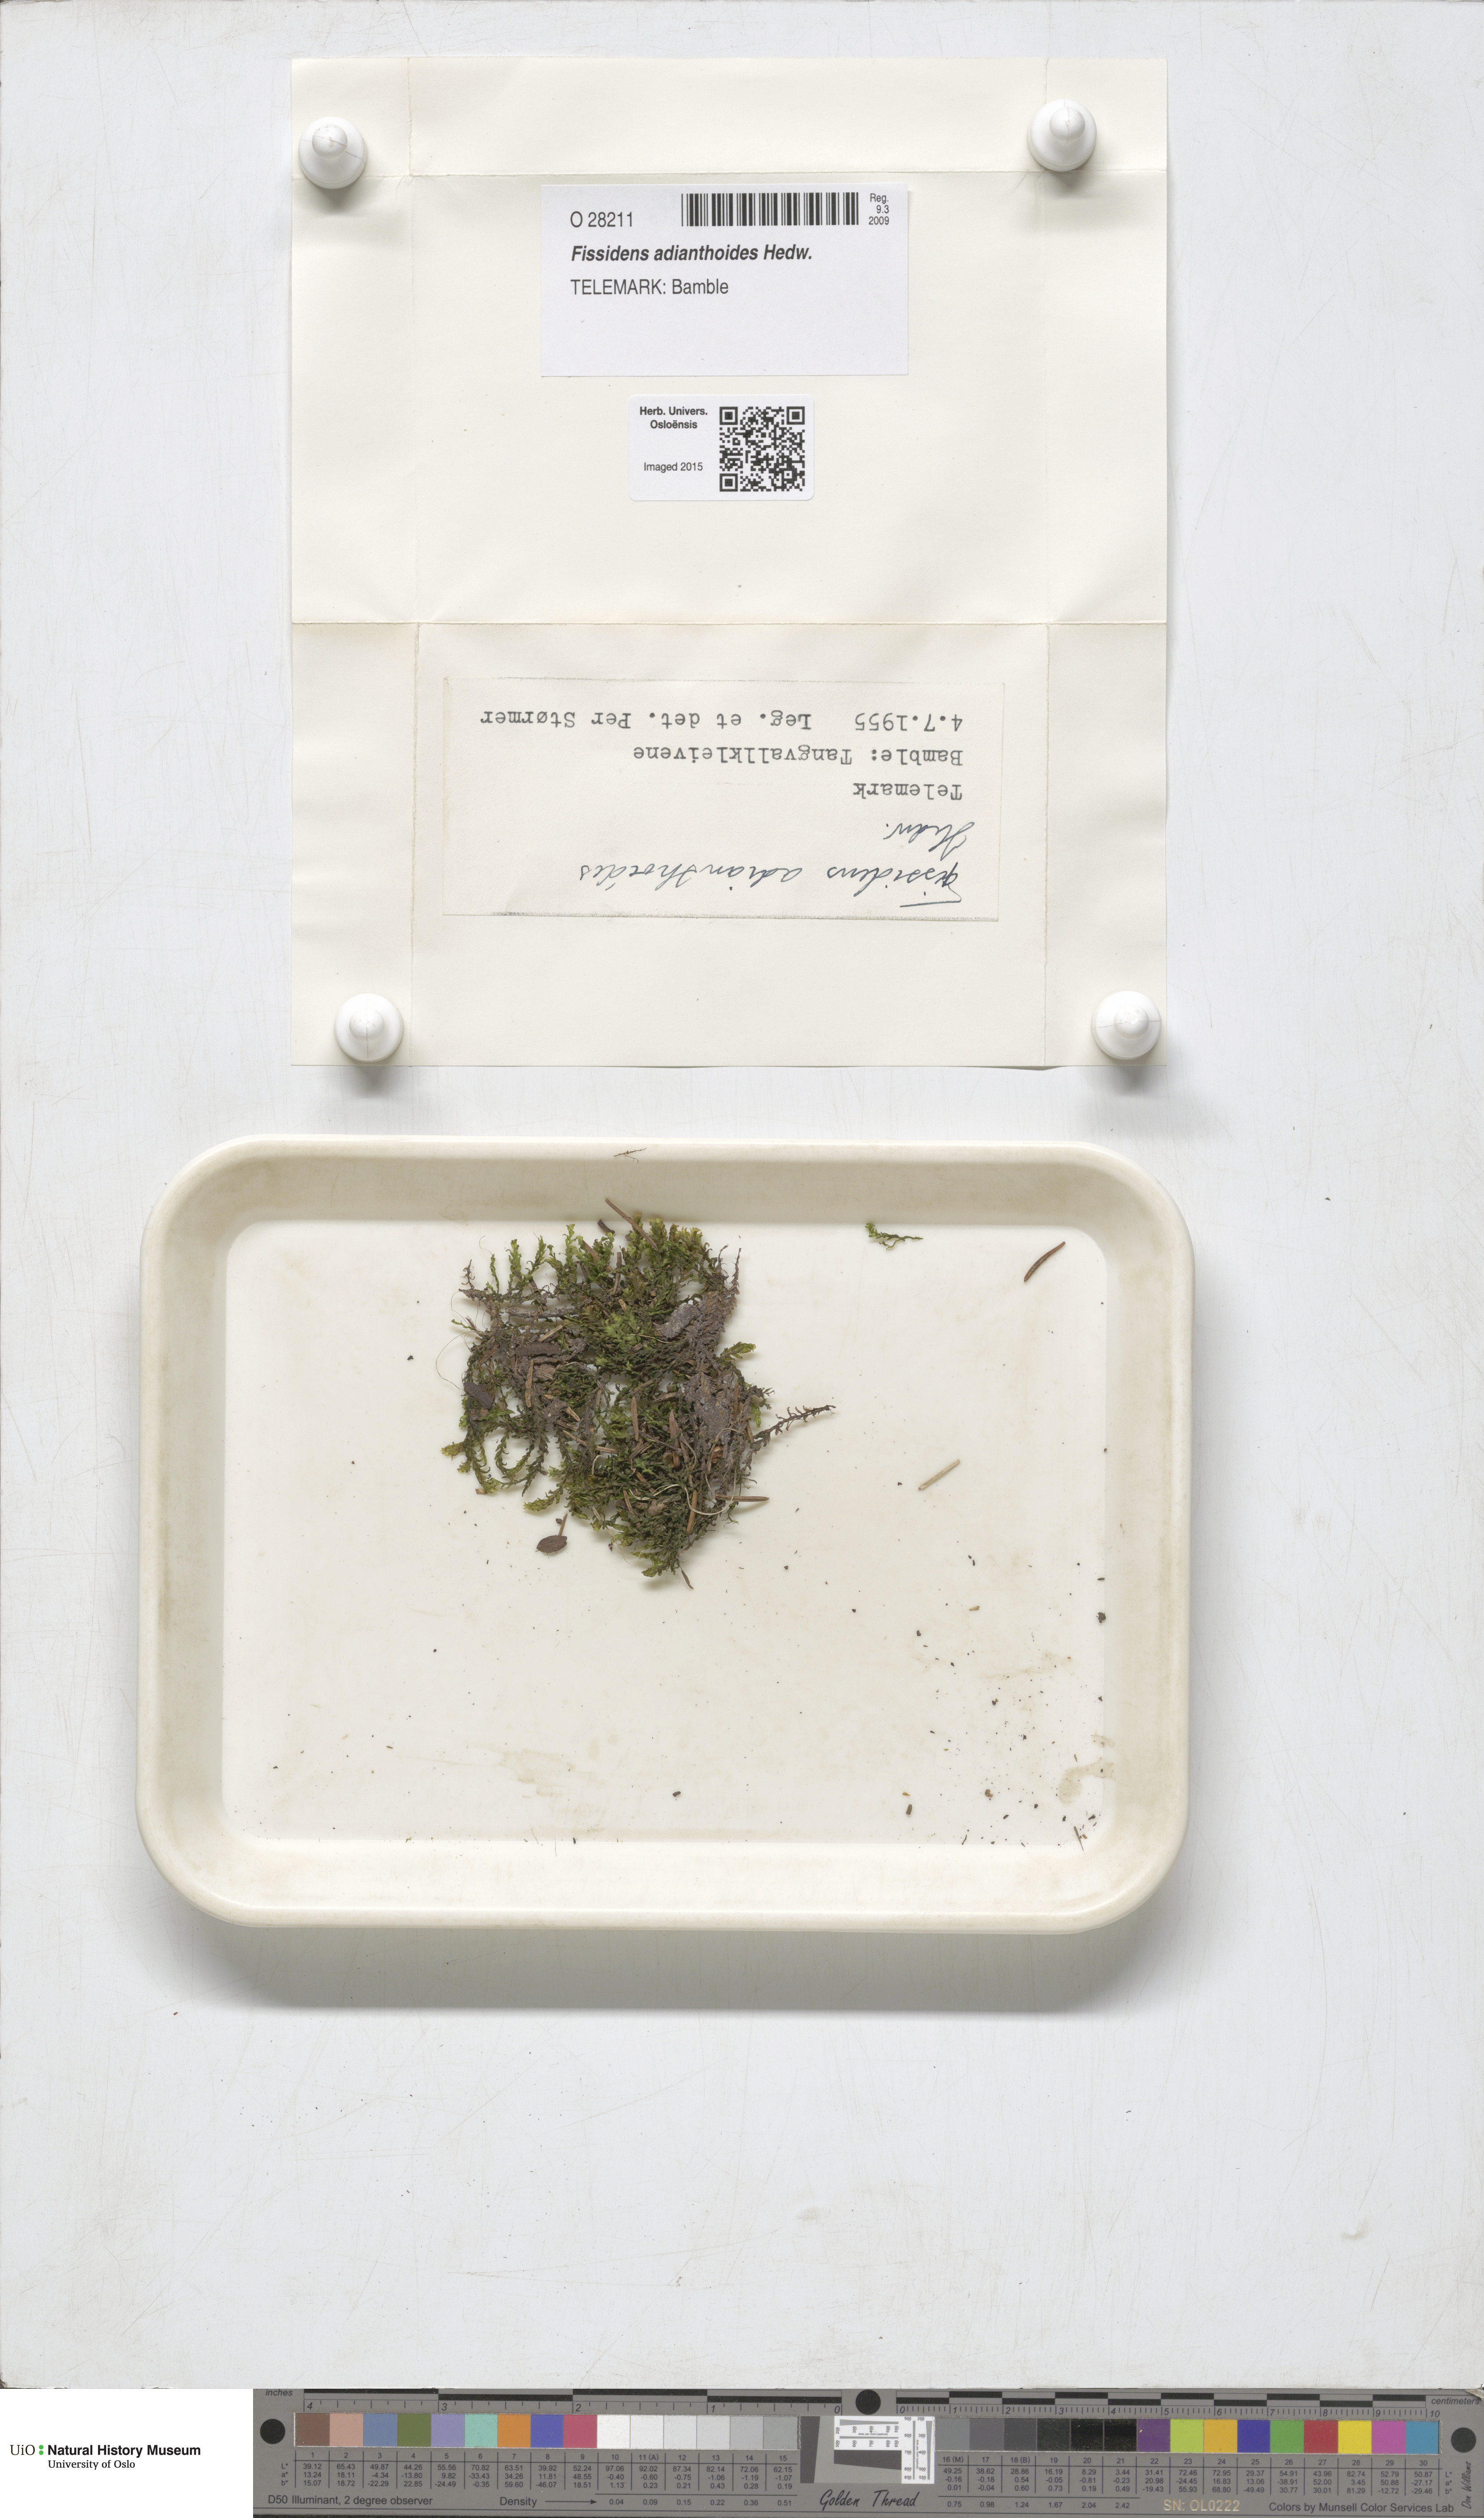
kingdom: Plantae
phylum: Bryophyta
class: Bryopsida
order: Dicranales
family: Fissidentaceae
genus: Fissidens
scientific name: Fissidens adianthoides
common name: Maidenhair pocket moss
